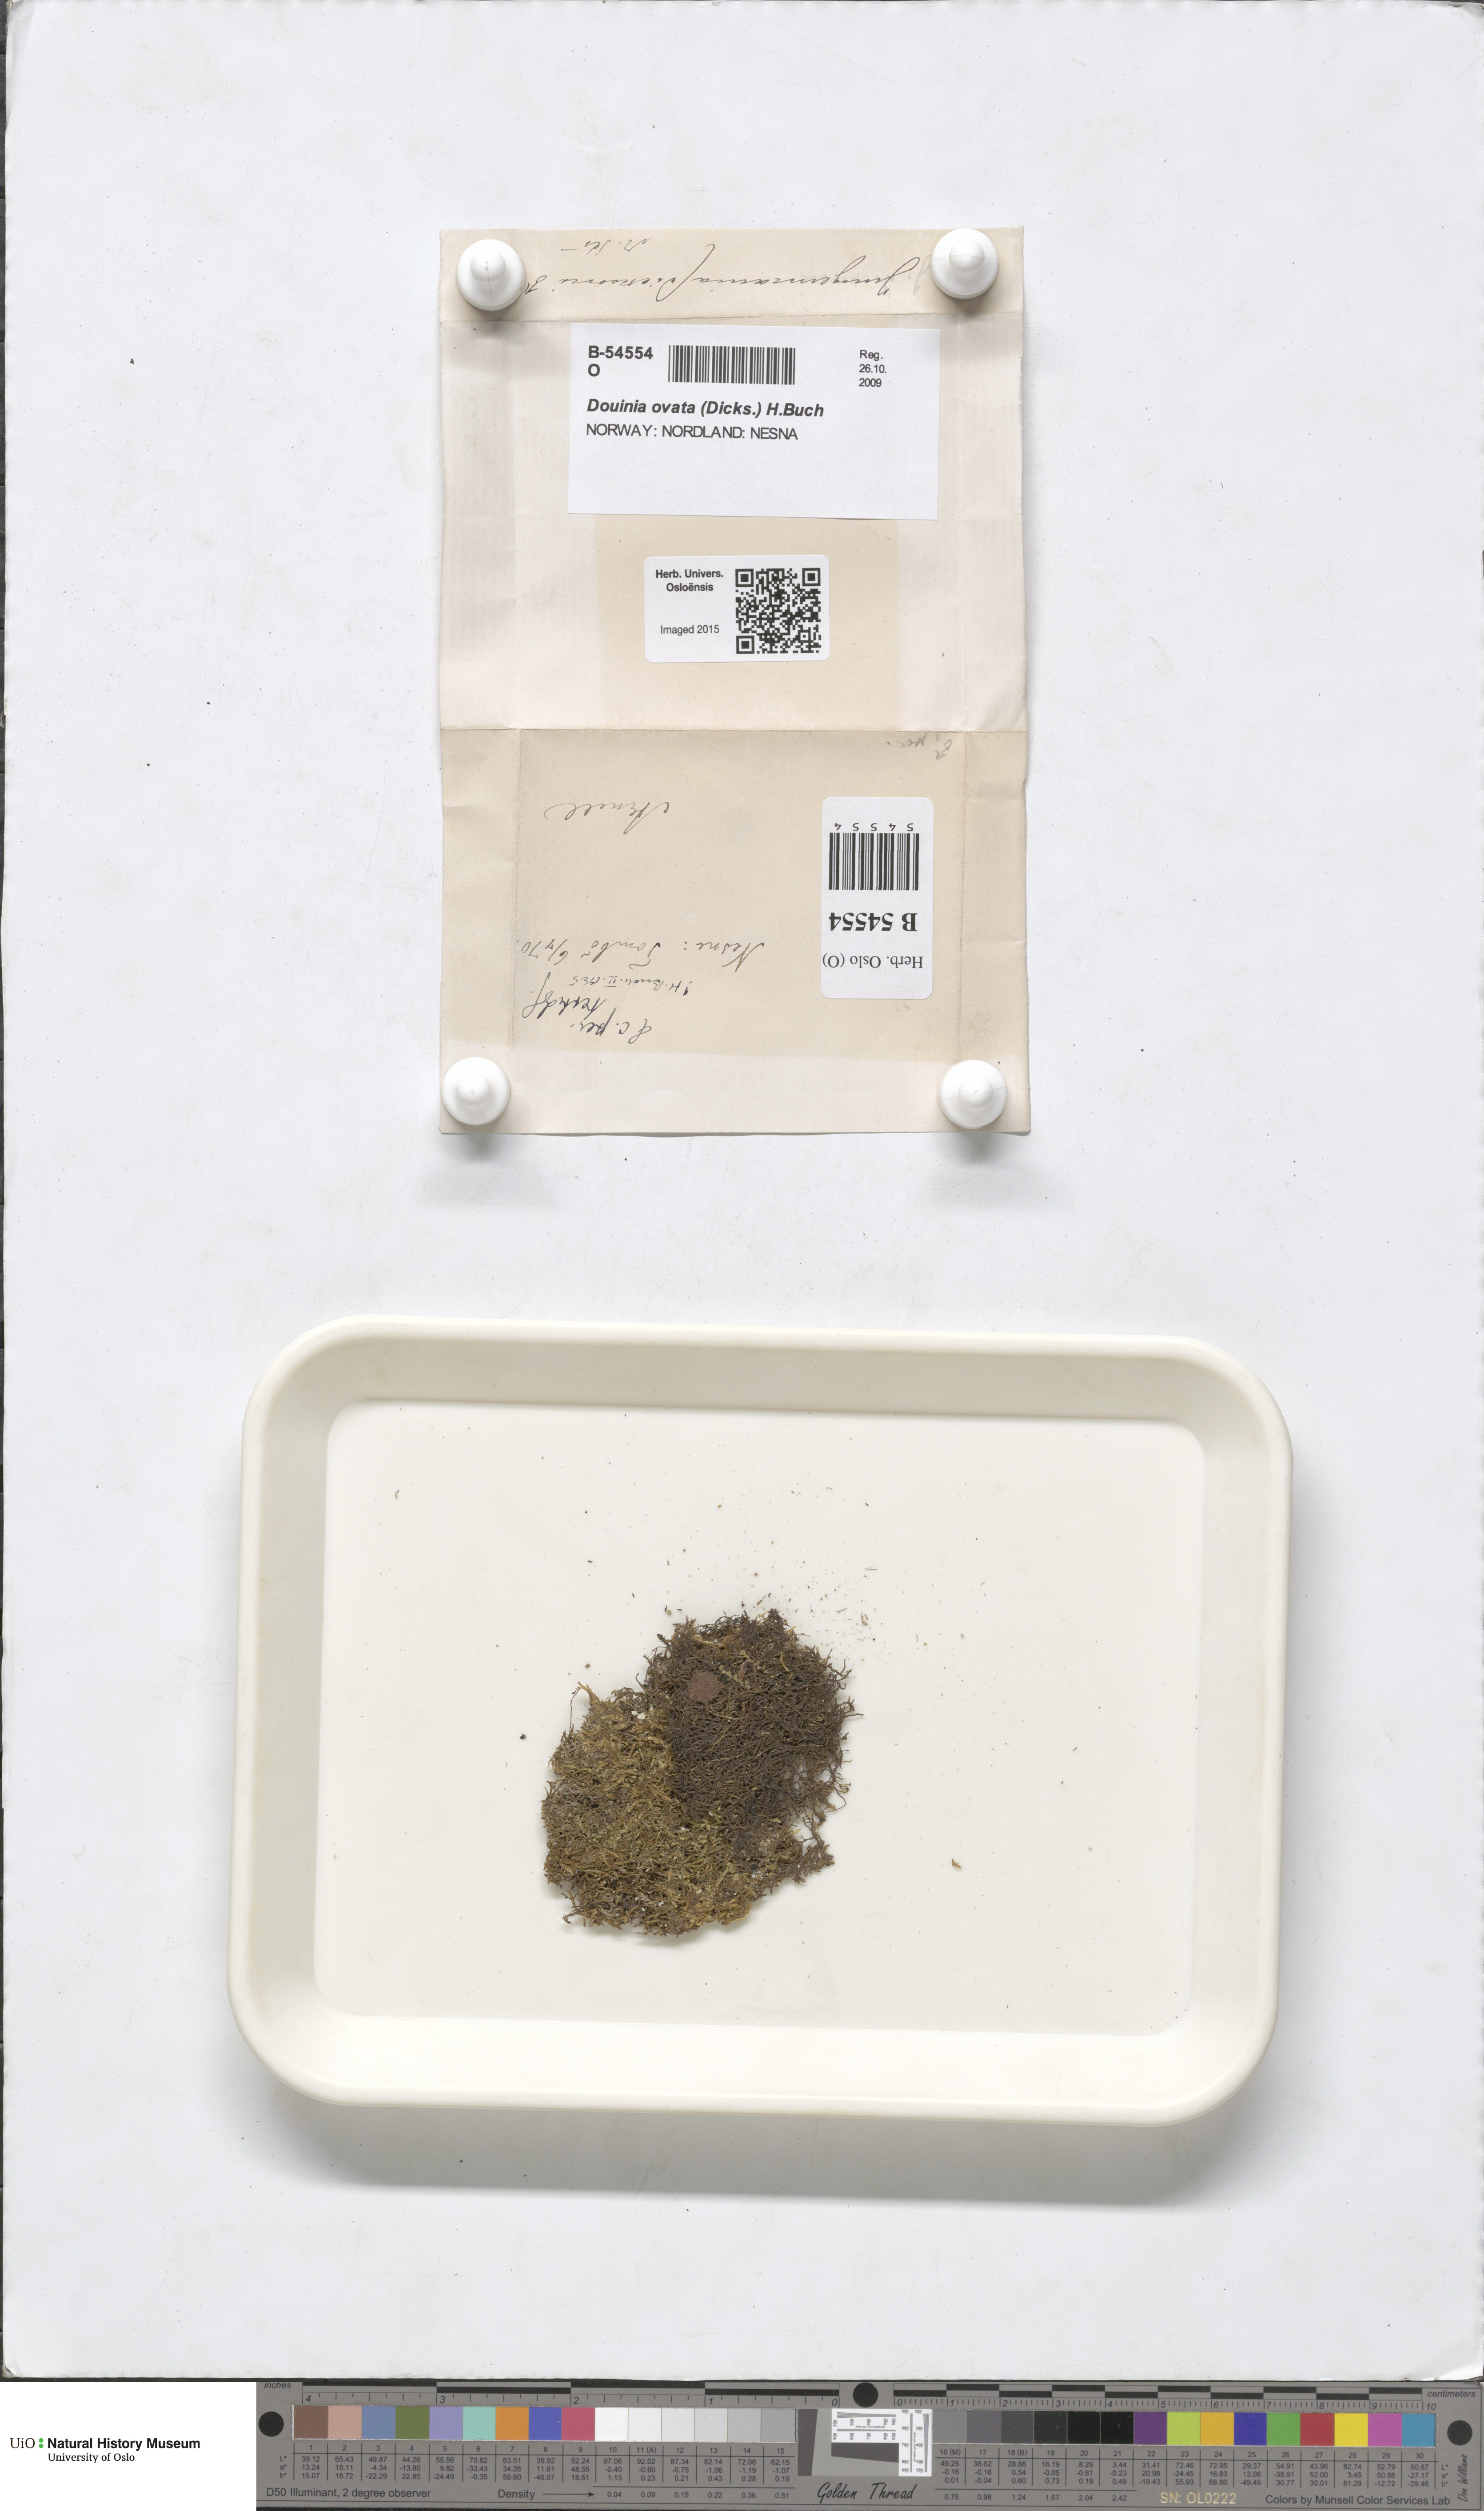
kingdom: Plantae
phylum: Marchantiophyta
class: Jungermanniopsida
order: Jungermanniales
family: Scapaniaceae
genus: Douinia
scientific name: Douinia ovata
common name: Waxy earwort
